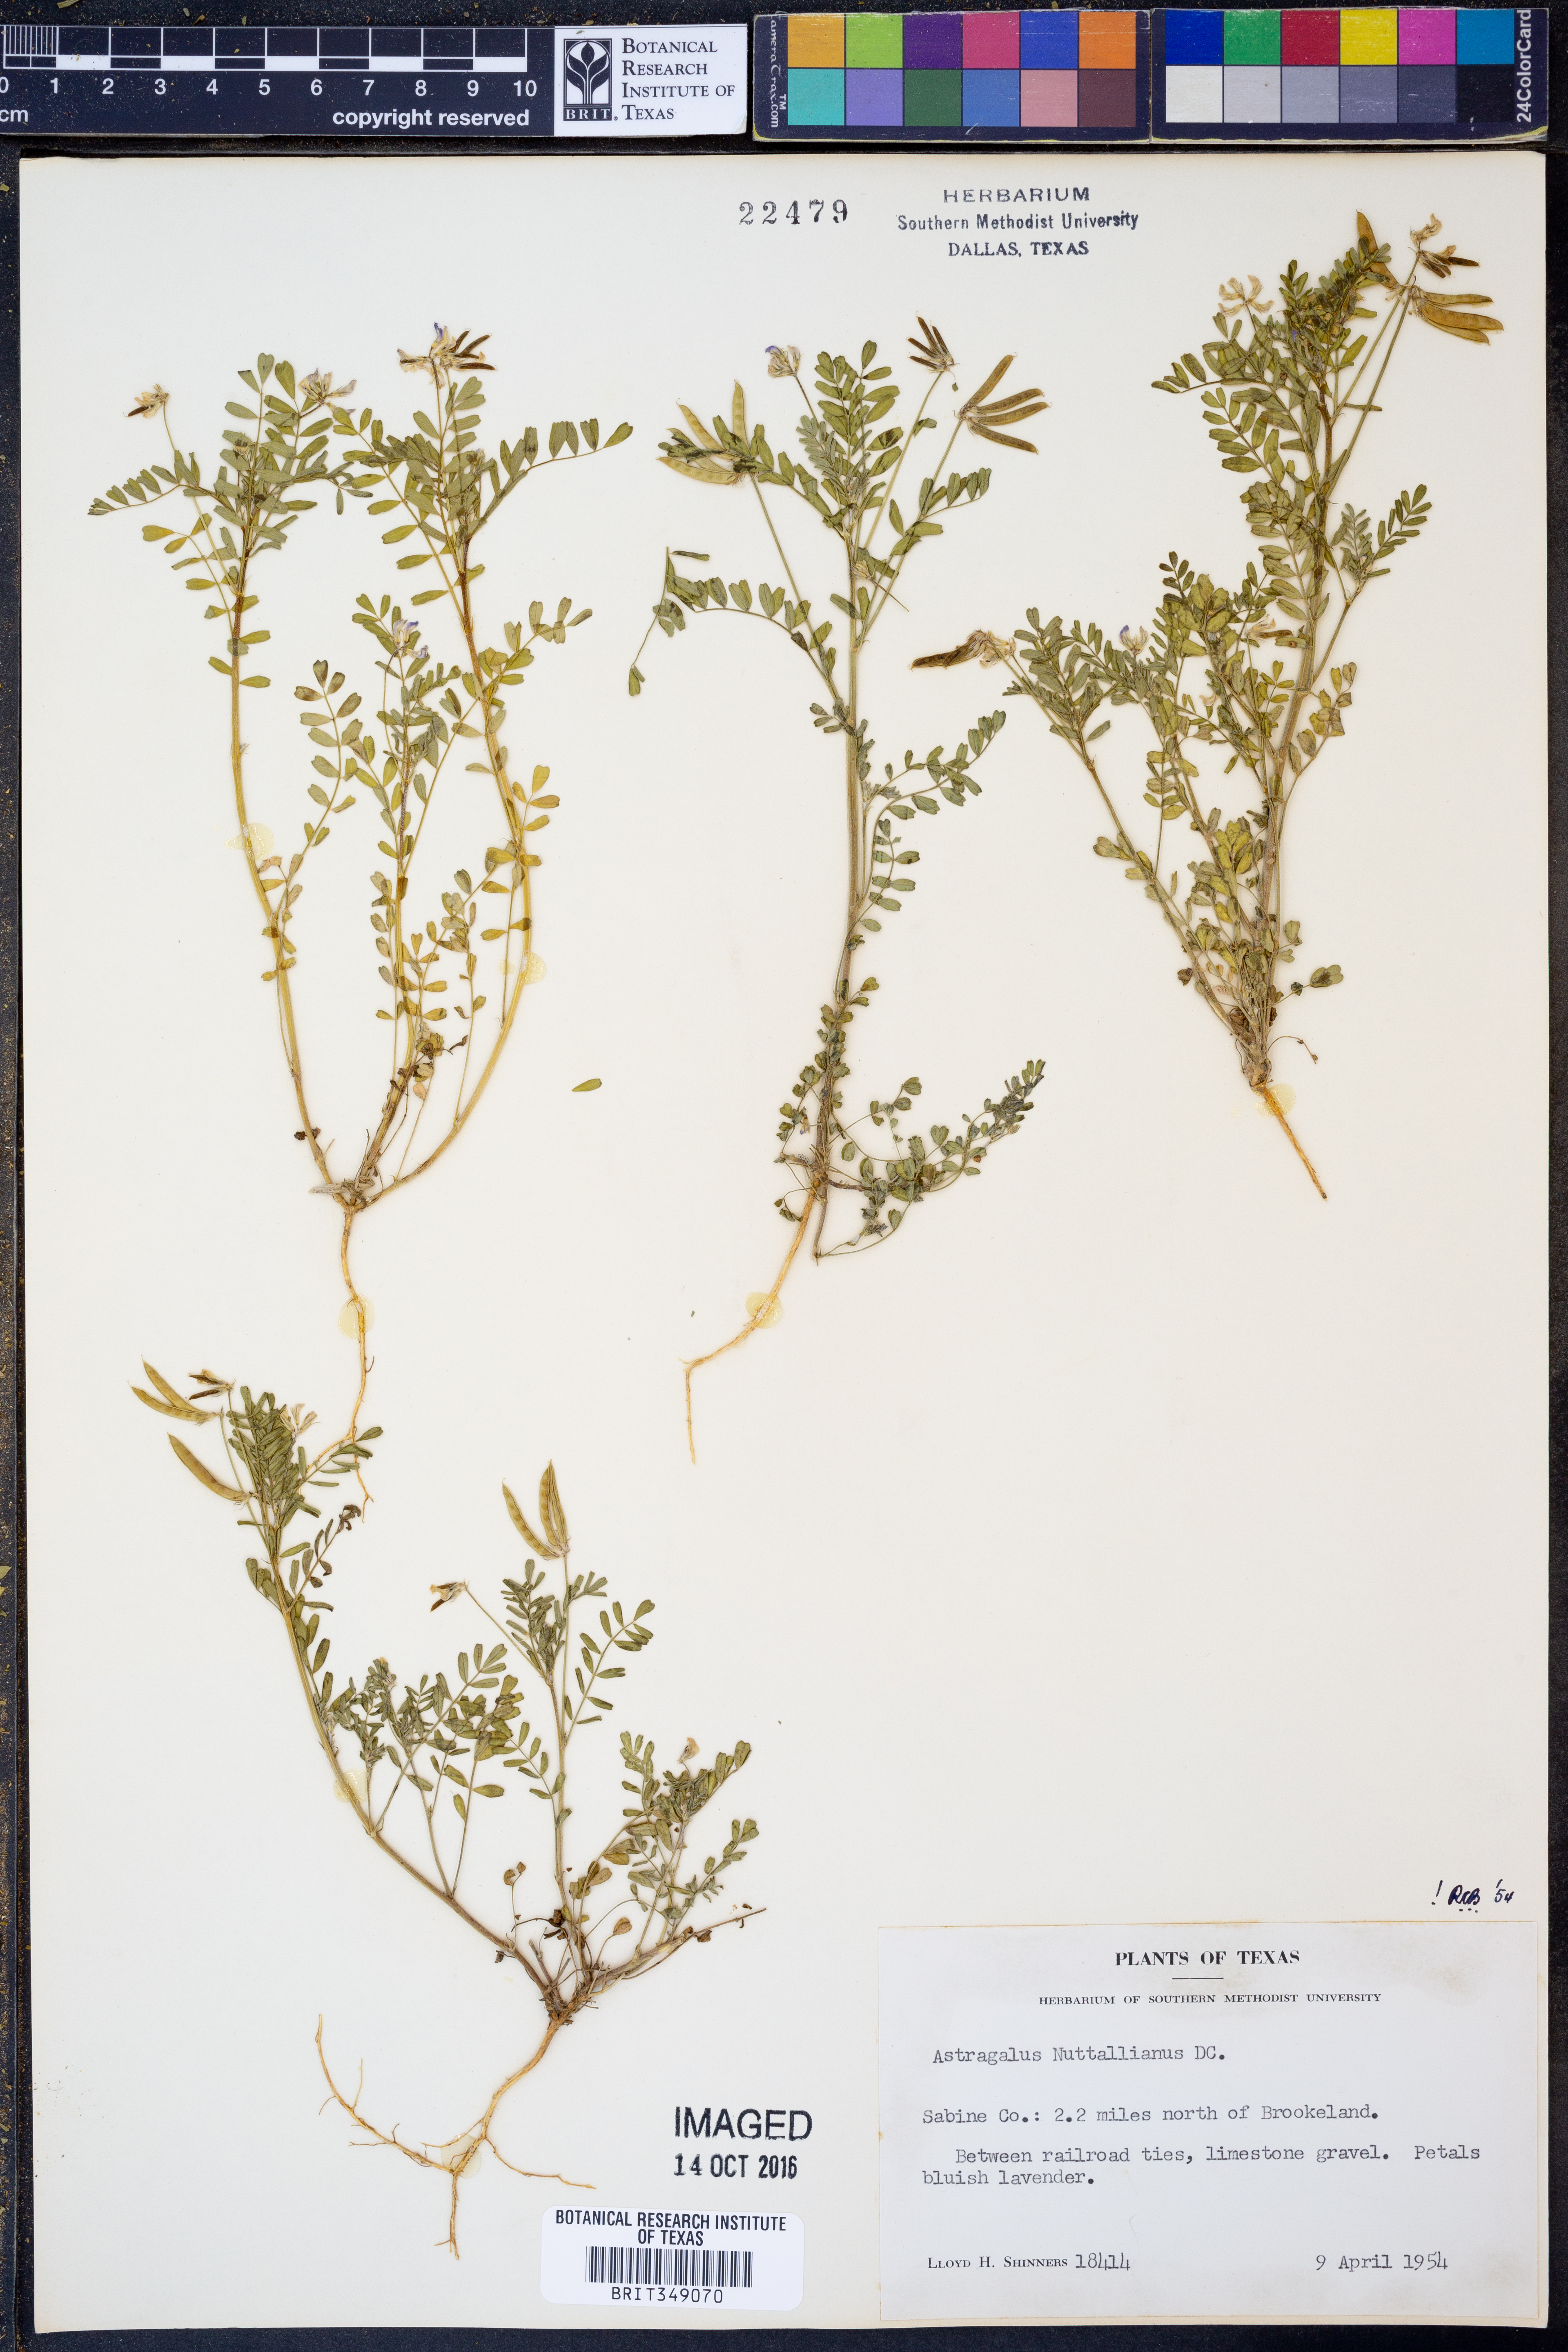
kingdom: Plantae
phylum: Tracheophyta
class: Magnoliopsida
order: Fabales
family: Fabaceae
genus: Astragalus
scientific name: Astragalus nuttallianus
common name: Smallflowered milkvetch
